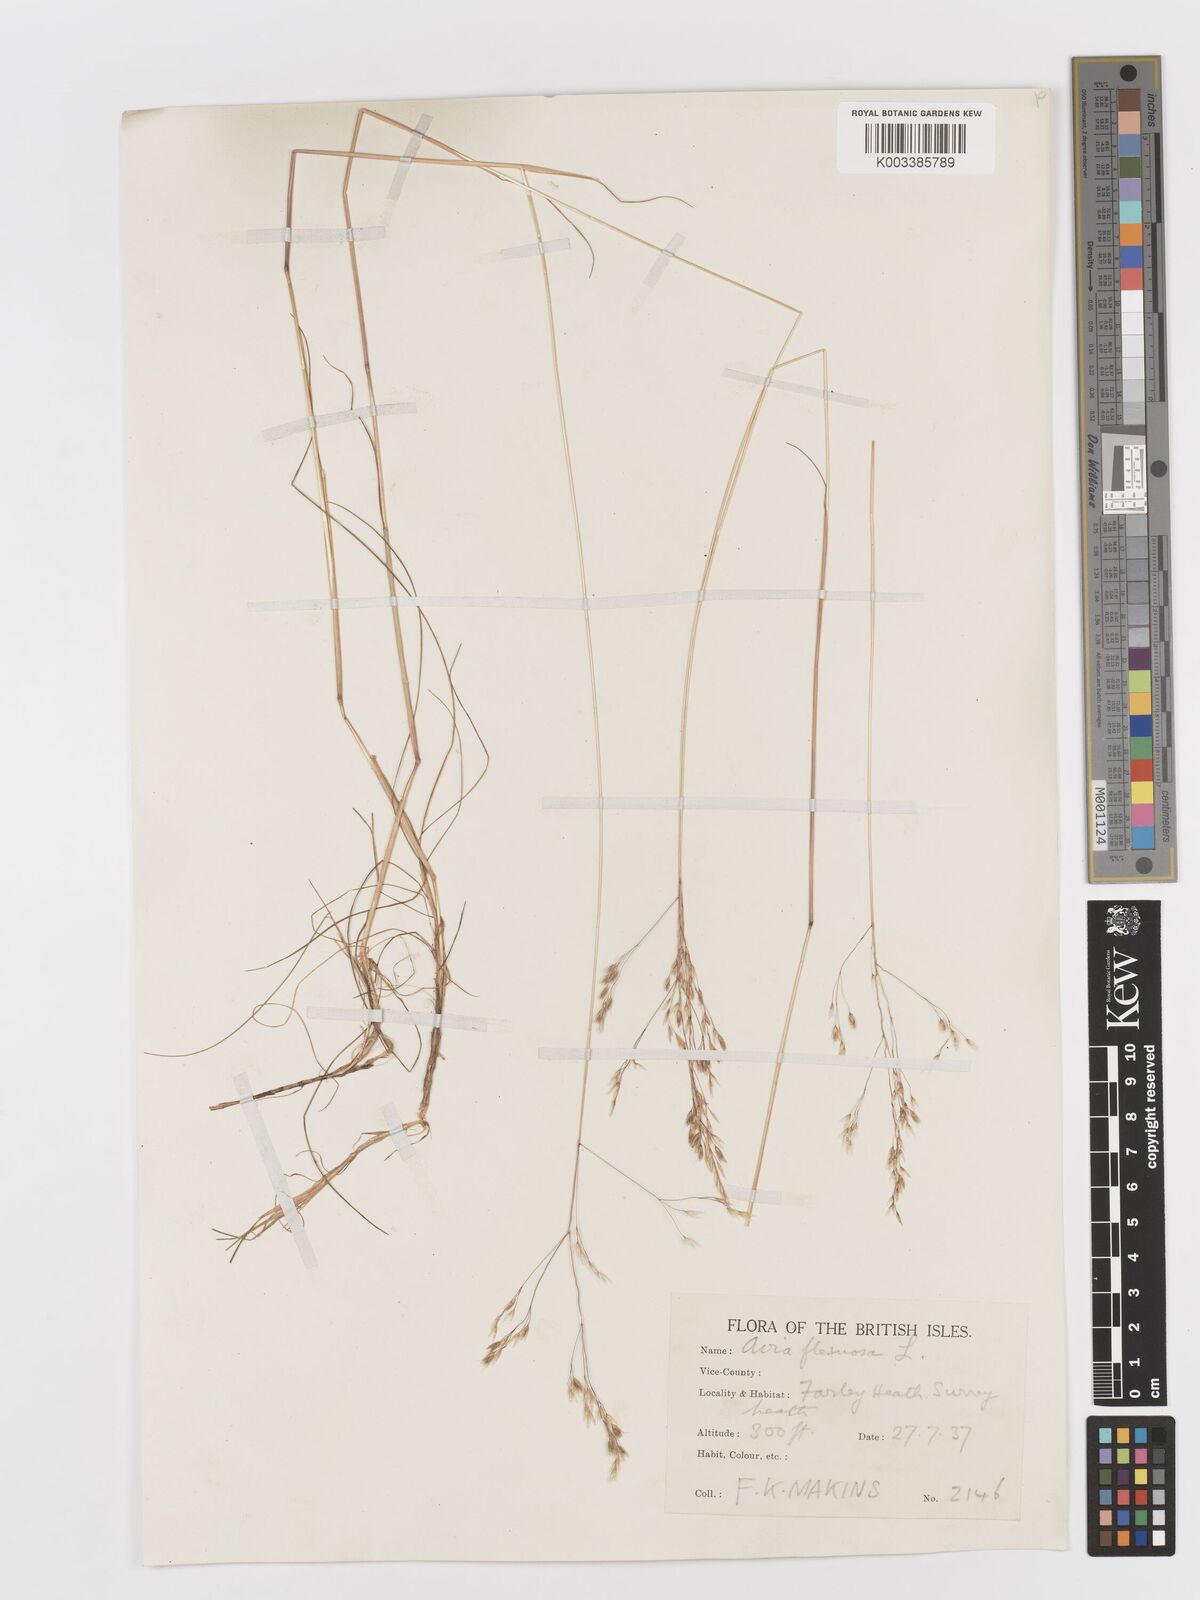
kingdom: Plantae
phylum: Tracheophyta
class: Liliopsida
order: Poales
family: Poaceae
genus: Avenella
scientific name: Avenella flexuosa
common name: Wavy hairgrass
